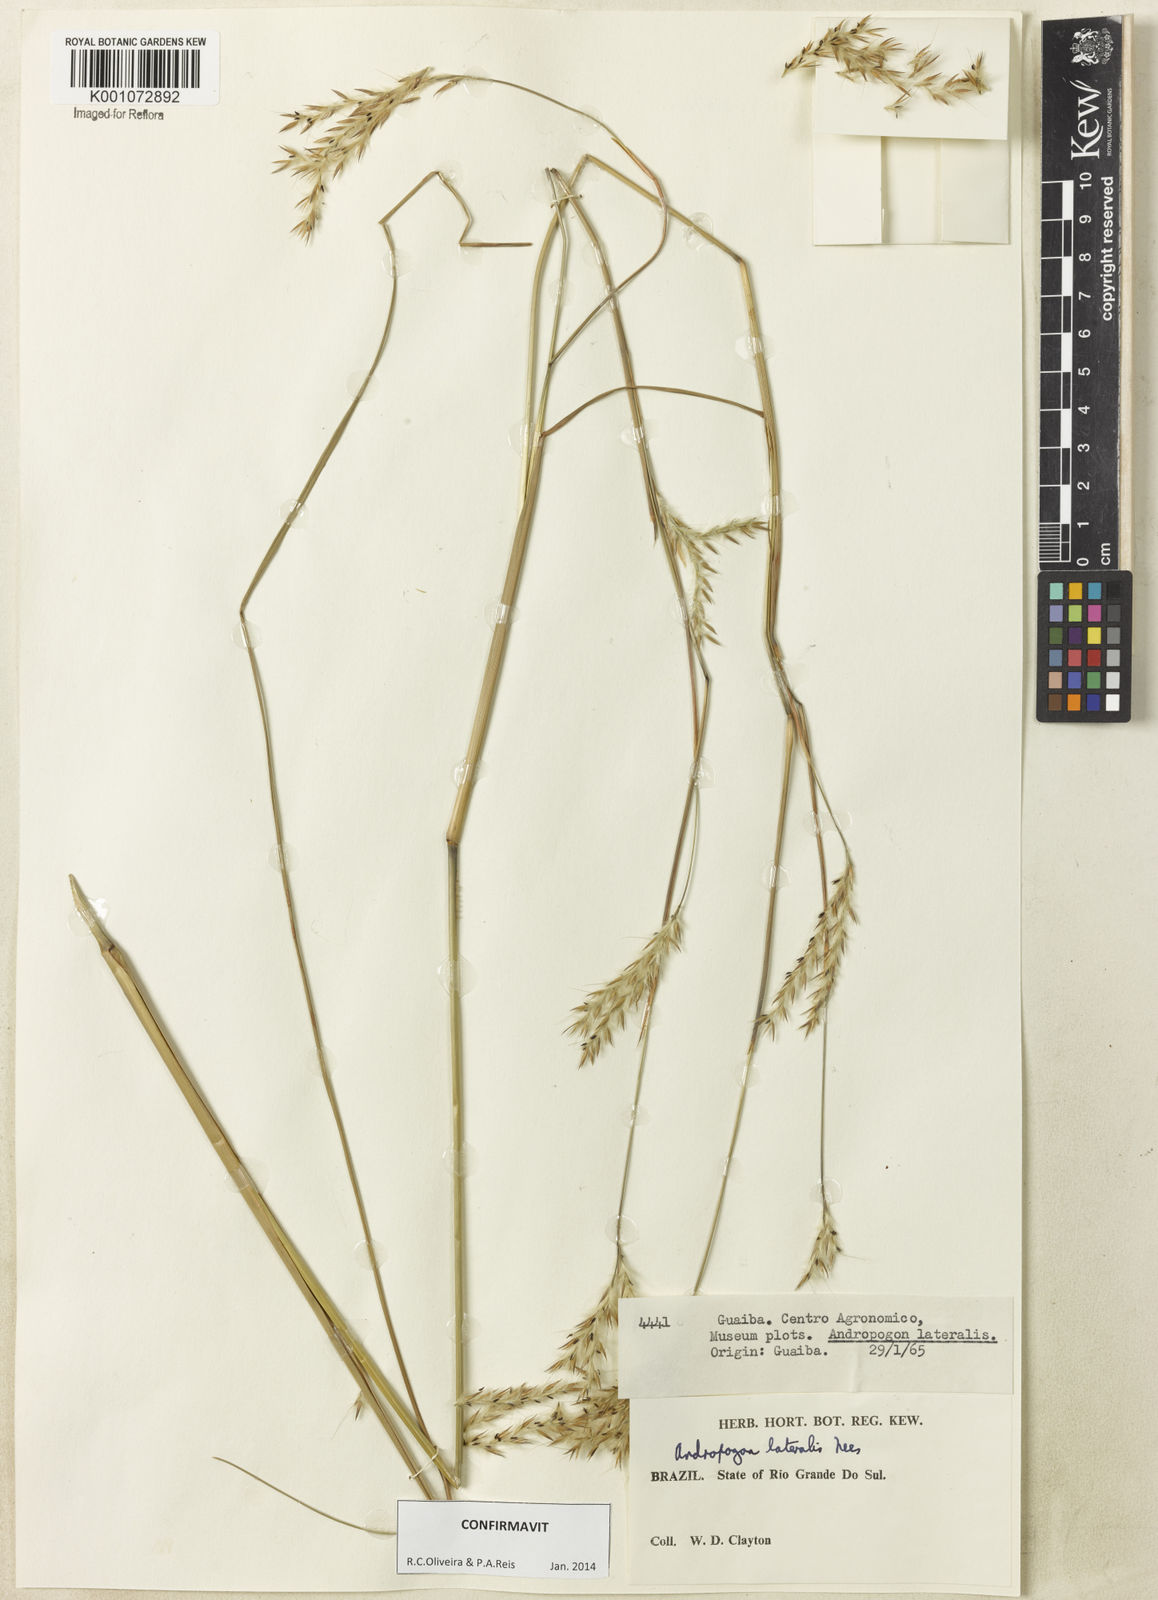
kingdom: Plantae
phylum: Tracheophyta
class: Liliopsida
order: Poales
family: Poaceae
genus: Andropogon
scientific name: Andropogon lateralis
